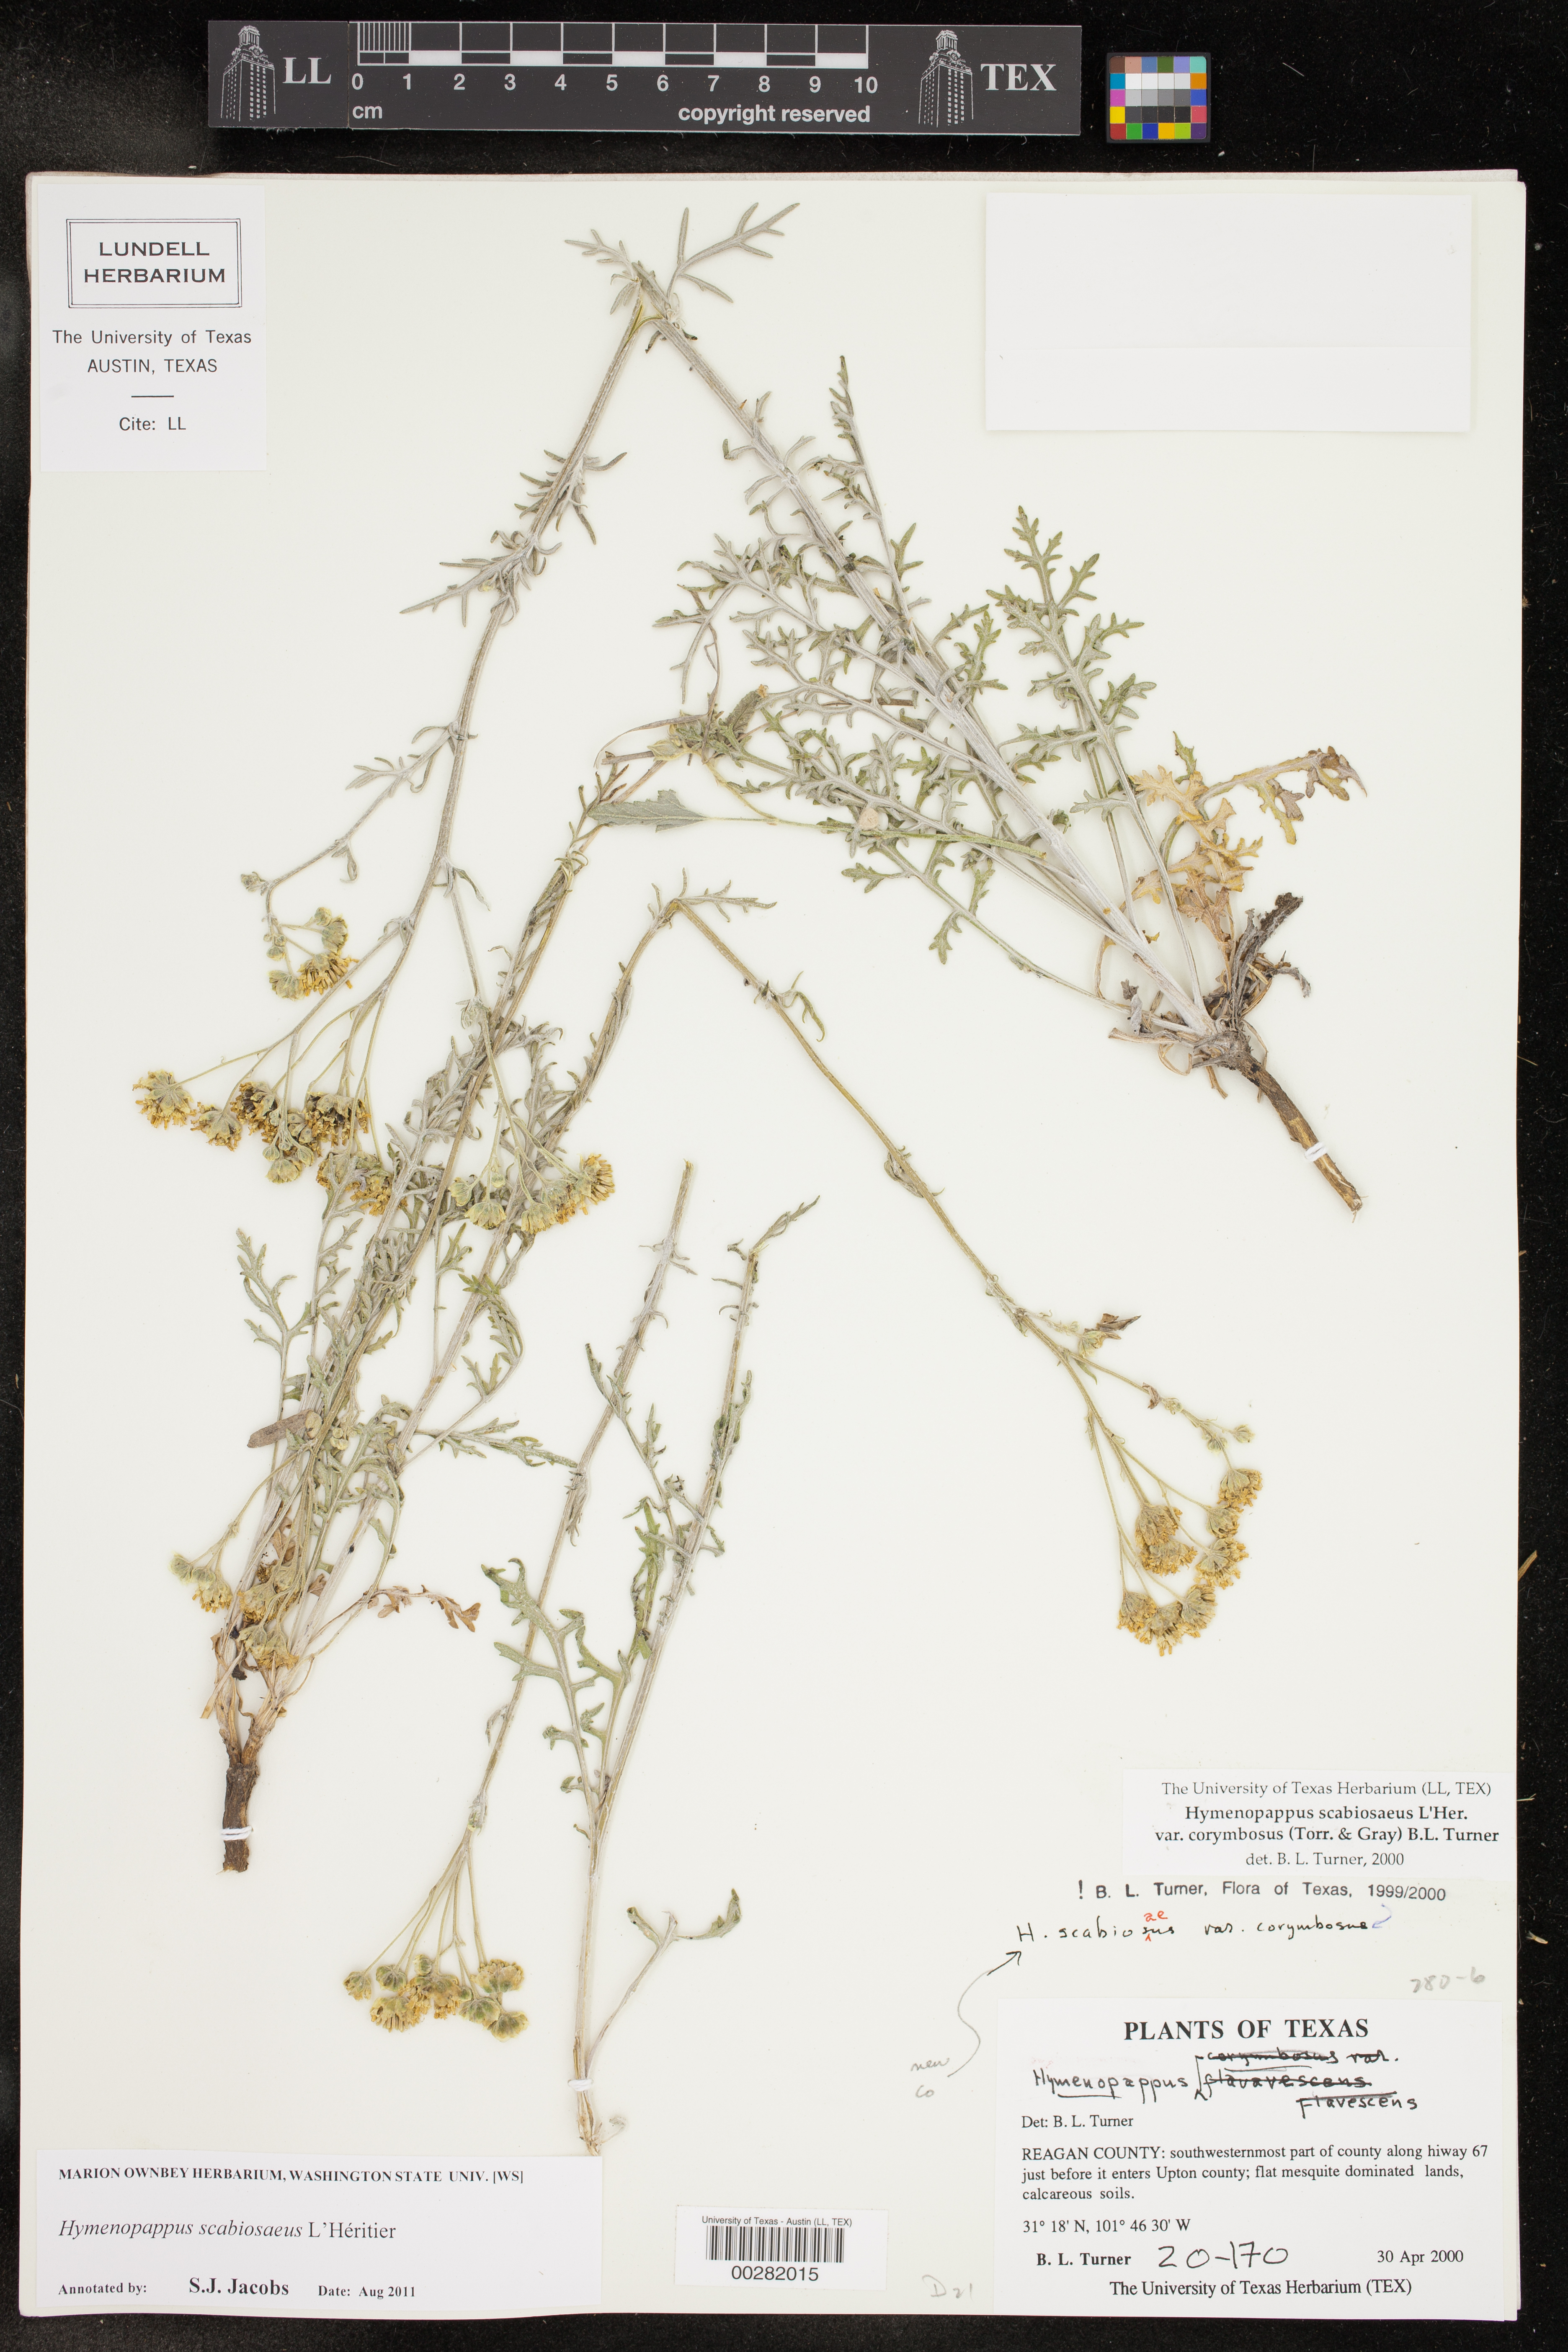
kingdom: Plantae
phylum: Tracheophyta
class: Magnoliopsida
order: Asterales
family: Asteraceae
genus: Hymenopappus
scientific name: Hymenopappus scabiosaeus
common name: Carolina woollywhite
